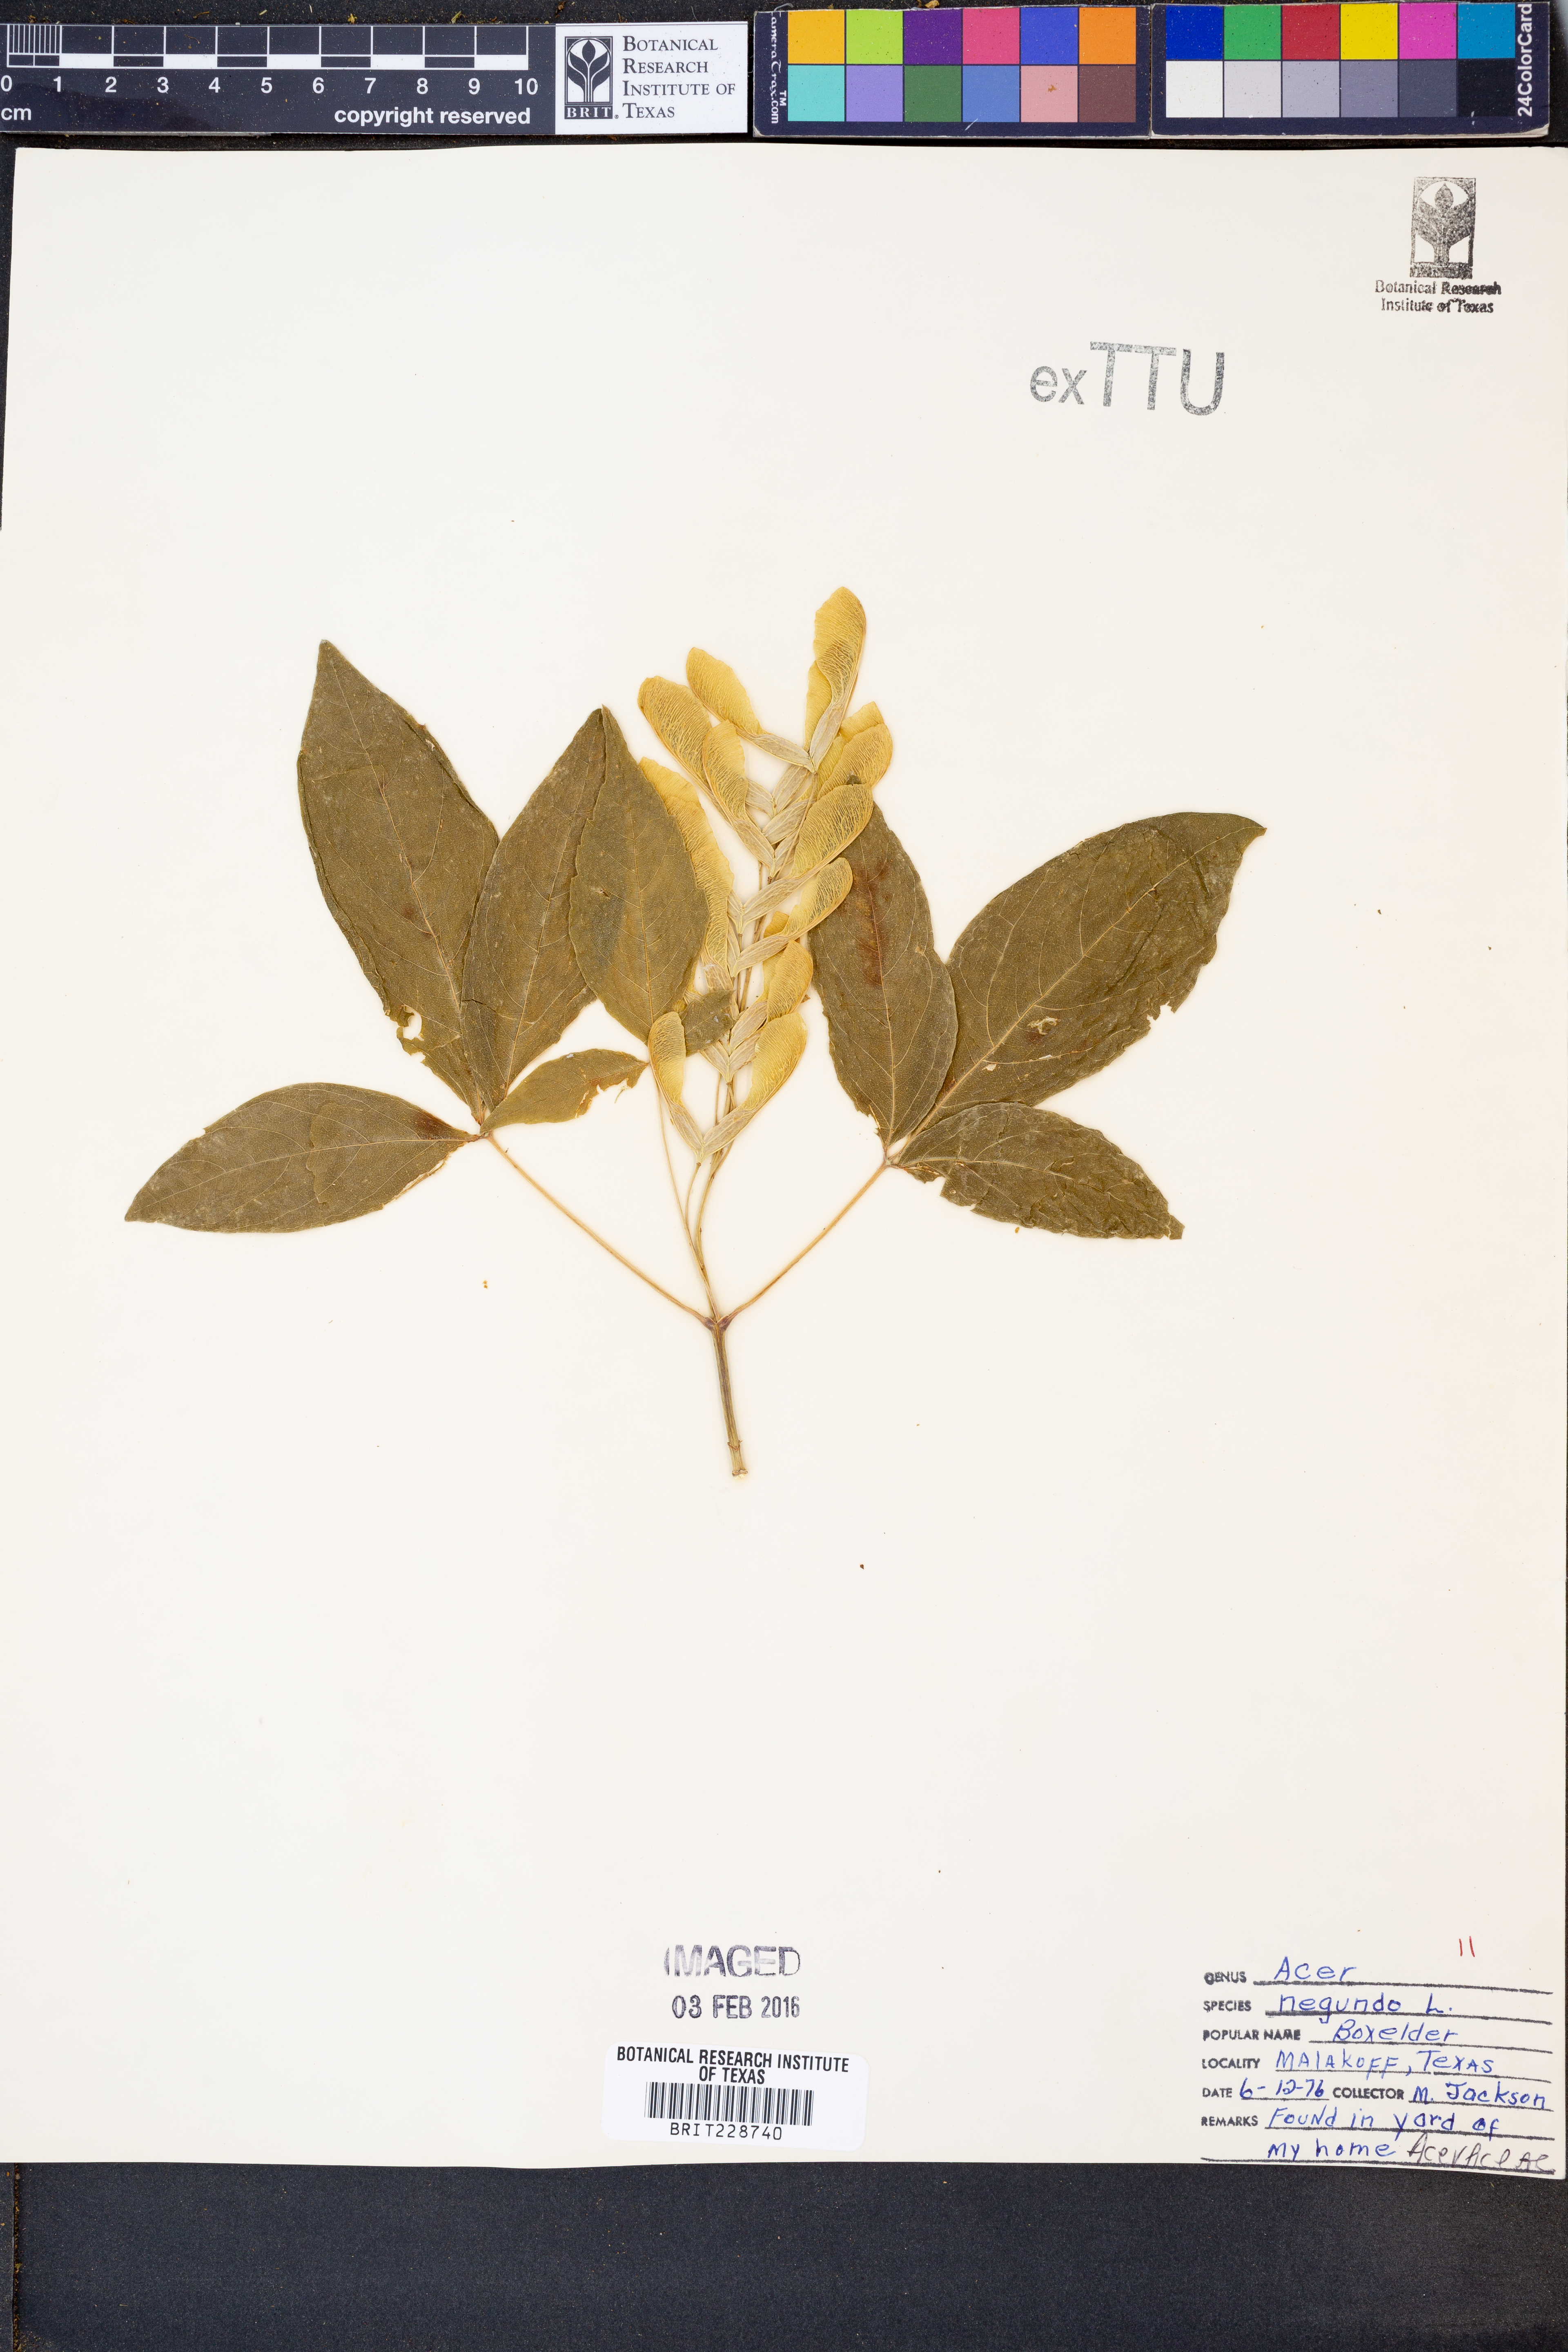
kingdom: Plantae
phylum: Tracheophyta
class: Magnoliopsida
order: Sapindales
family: Sapindaceae
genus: Acer
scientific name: Acer negundo
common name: Ashleaf maple
